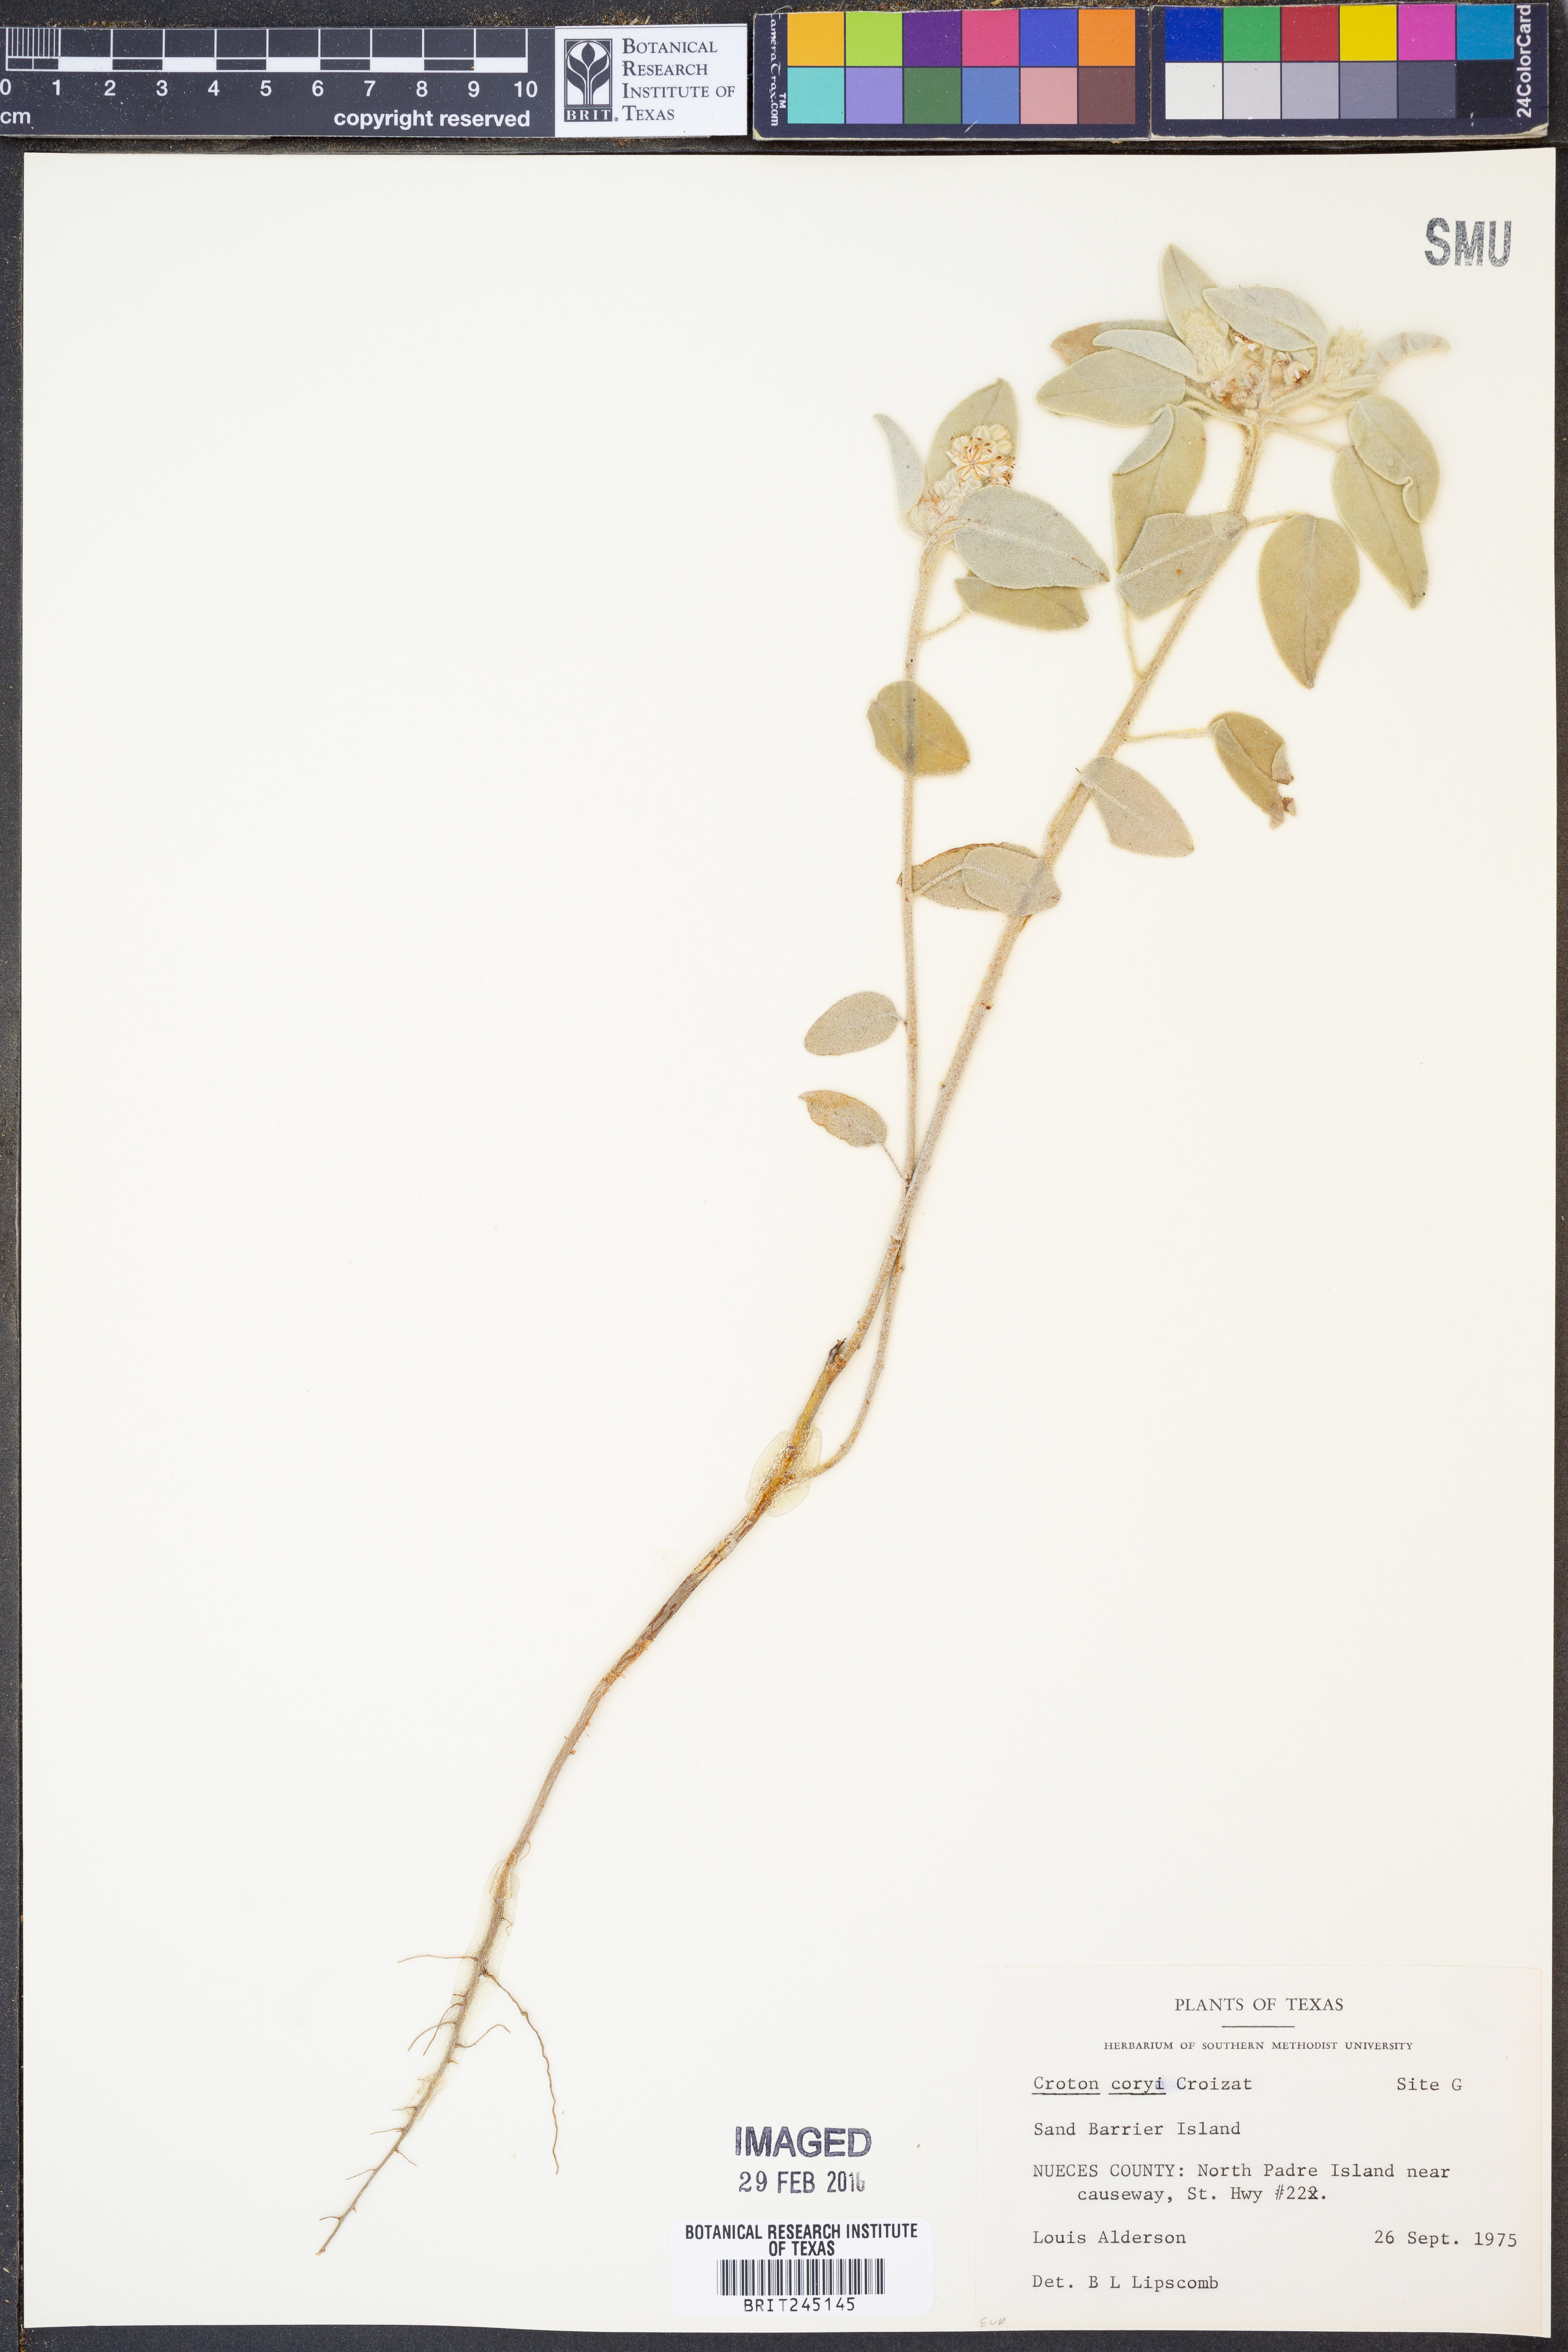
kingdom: Plantae
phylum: Tracheophyta
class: Magnoliopsida
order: Malpighiales
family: Euphorbiaceae
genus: Croton
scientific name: Croton coryi
